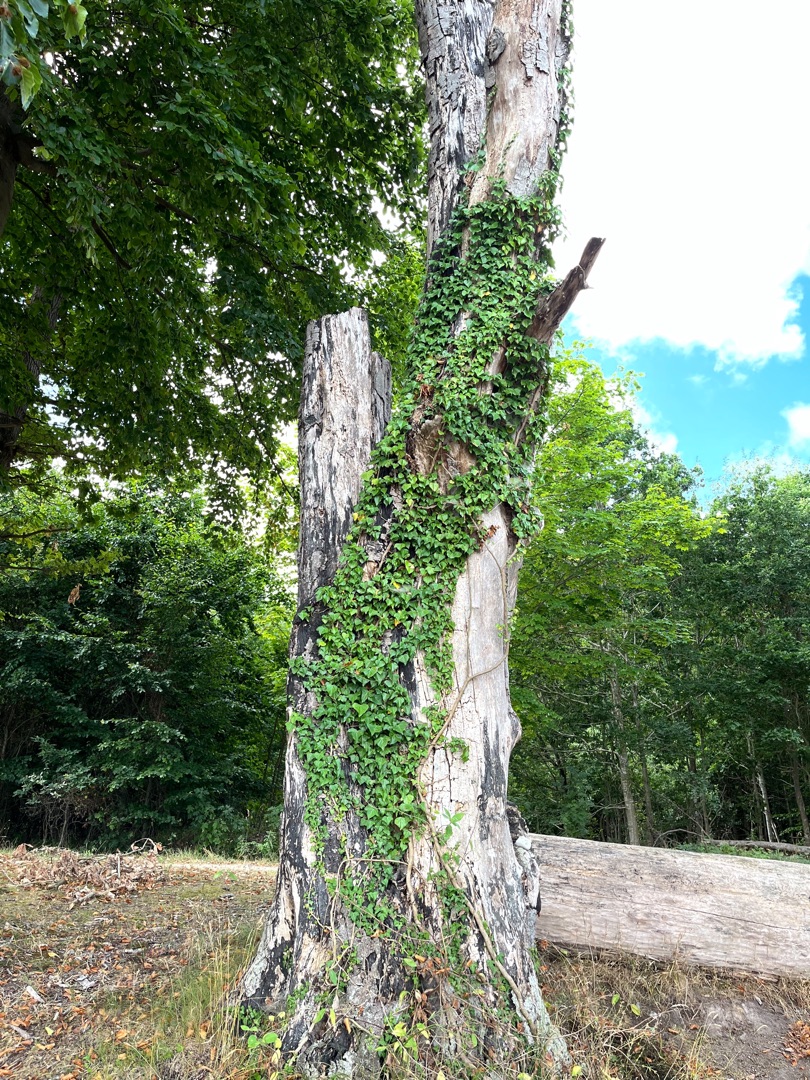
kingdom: Plantae
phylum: Tracheophyta
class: Magnoliopsida
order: Apiales
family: Araliaceae
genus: Hedera
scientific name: Hedera helix
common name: Vedbend
